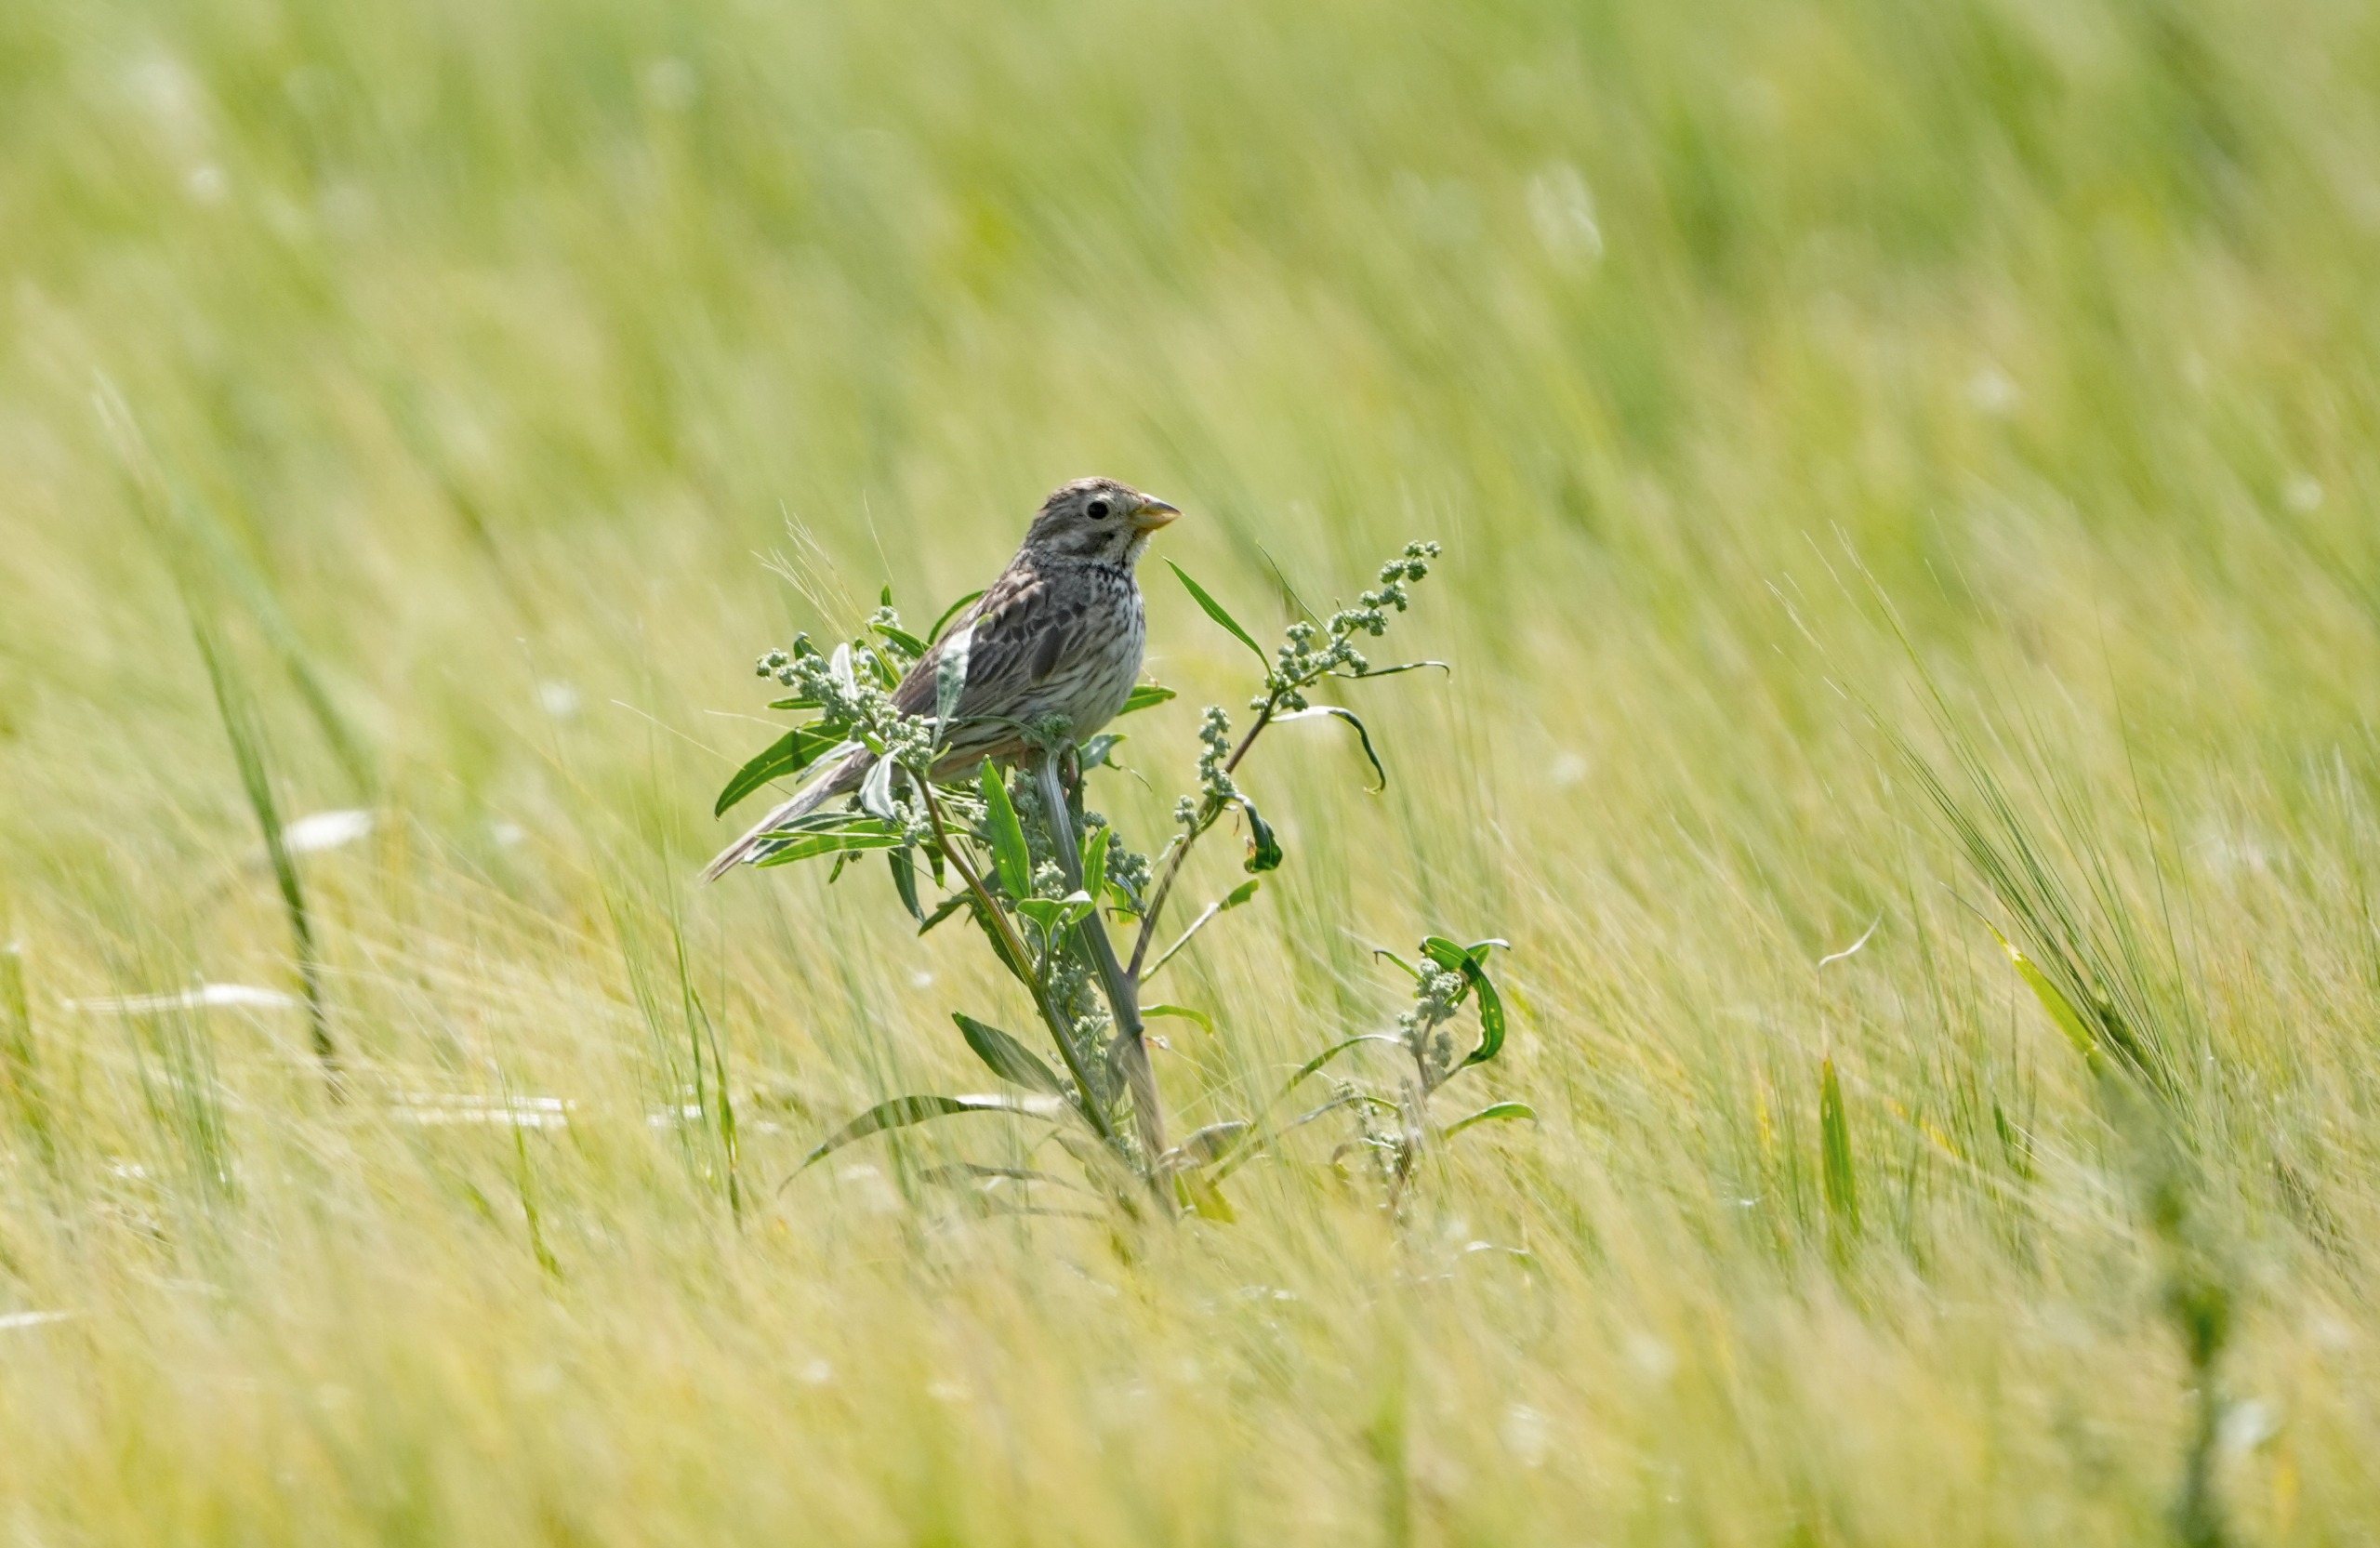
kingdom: Animalia
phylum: Chordata
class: Aves
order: Passeriformes
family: Emberizidae
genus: Emberiza
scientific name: Emberiza calandra
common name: Bomlærke
